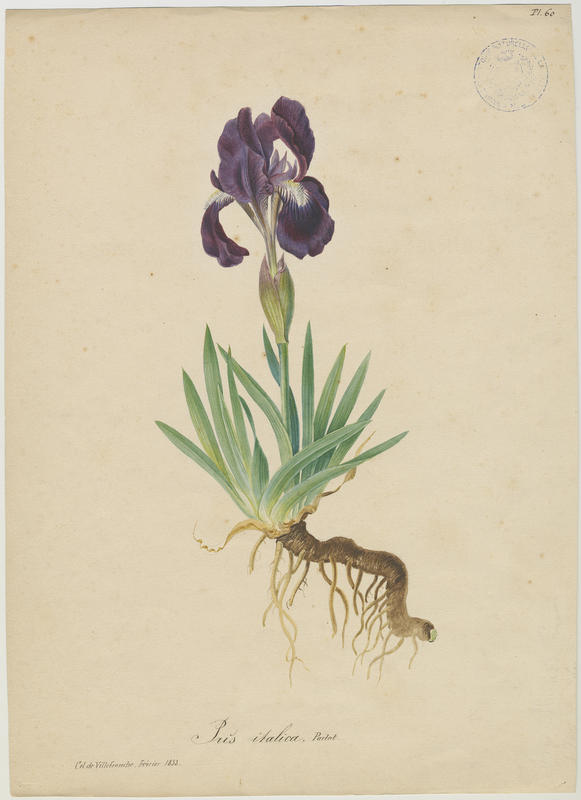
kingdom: Plantae
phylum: Tracheophyta
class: Liliopsida
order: Asparagales
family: Iridaceae
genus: Iris
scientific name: Iris lutescens
